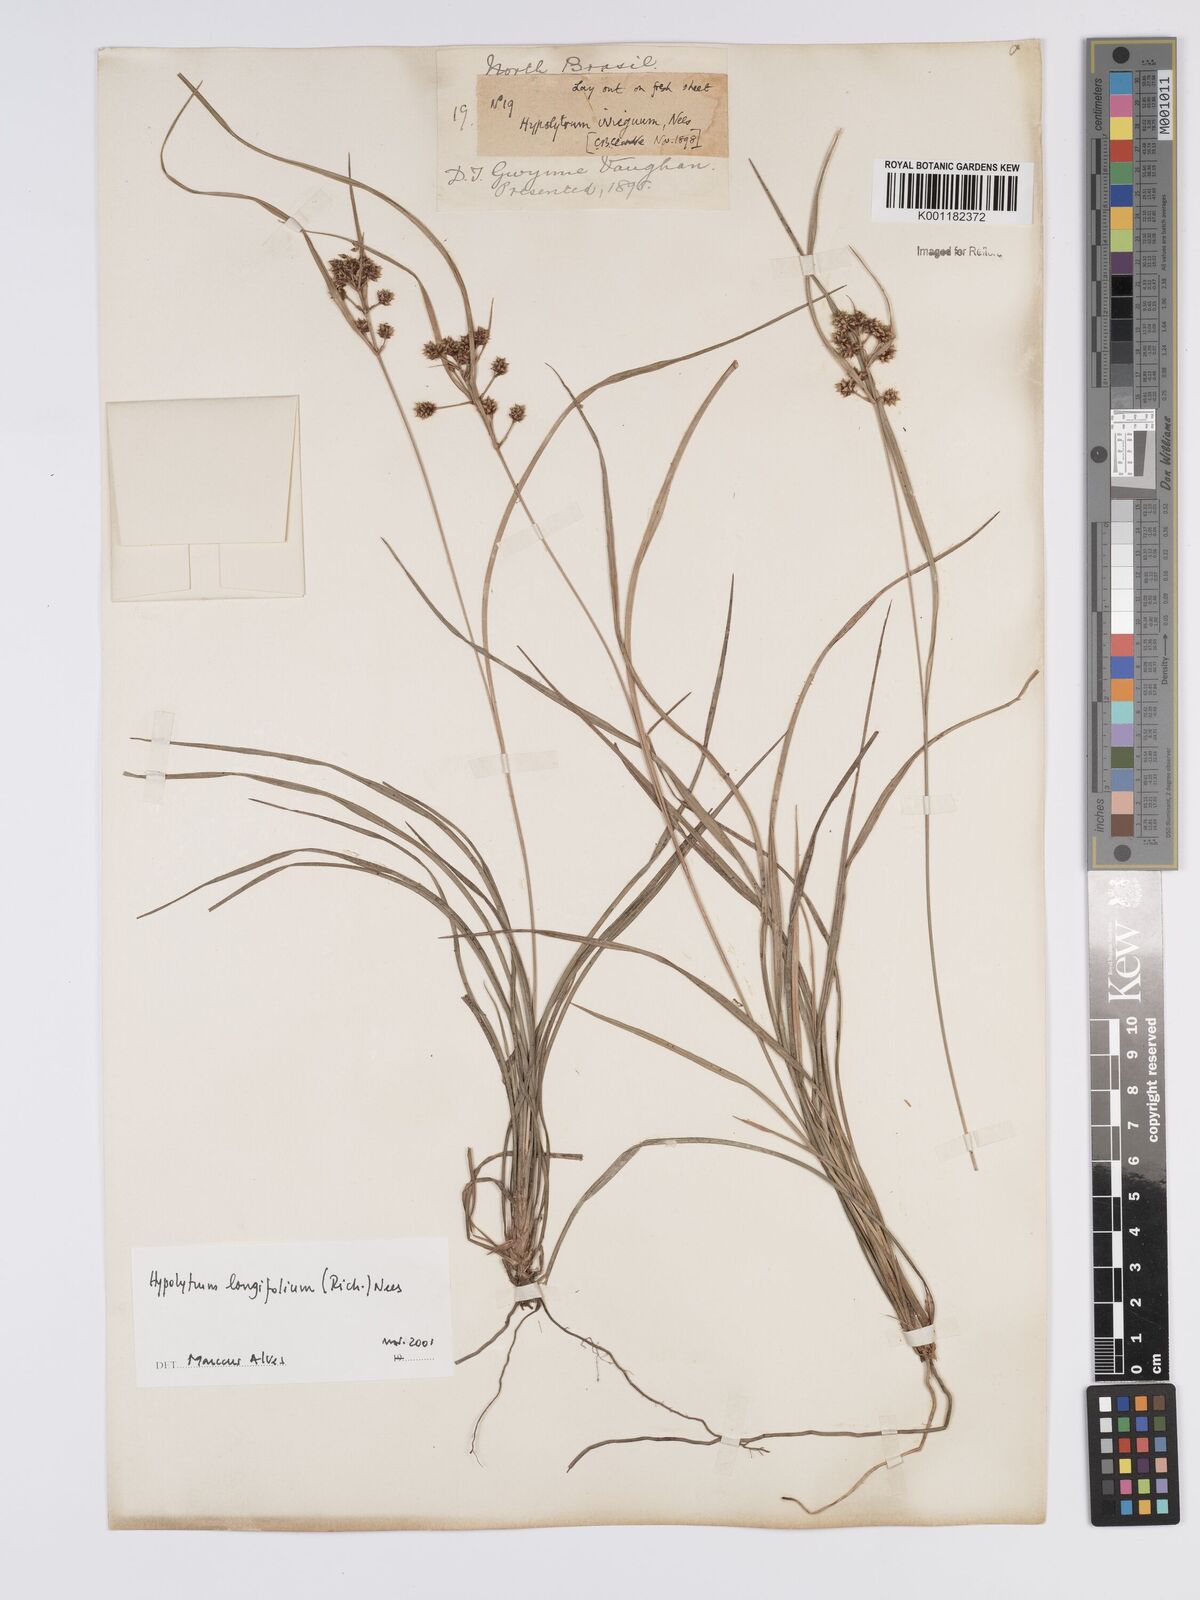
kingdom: Plantae
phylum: Tracheophyta
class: Liliopsida
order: Poales
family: Cyperaceae
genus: Hypolytrum
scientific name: Hypolytrum longifolium
